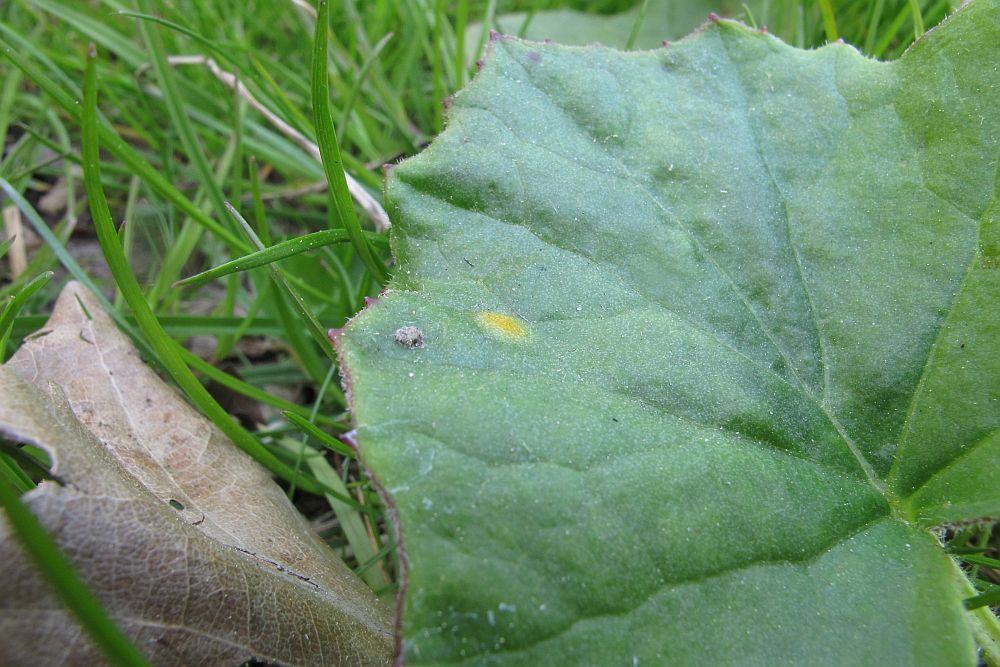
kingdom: Fungi
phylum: Basidiomycota
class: Pucciniomycetes
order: Pucciniales
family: Pucciniaceae
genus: Puccinia
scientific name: Puccinia poarum
